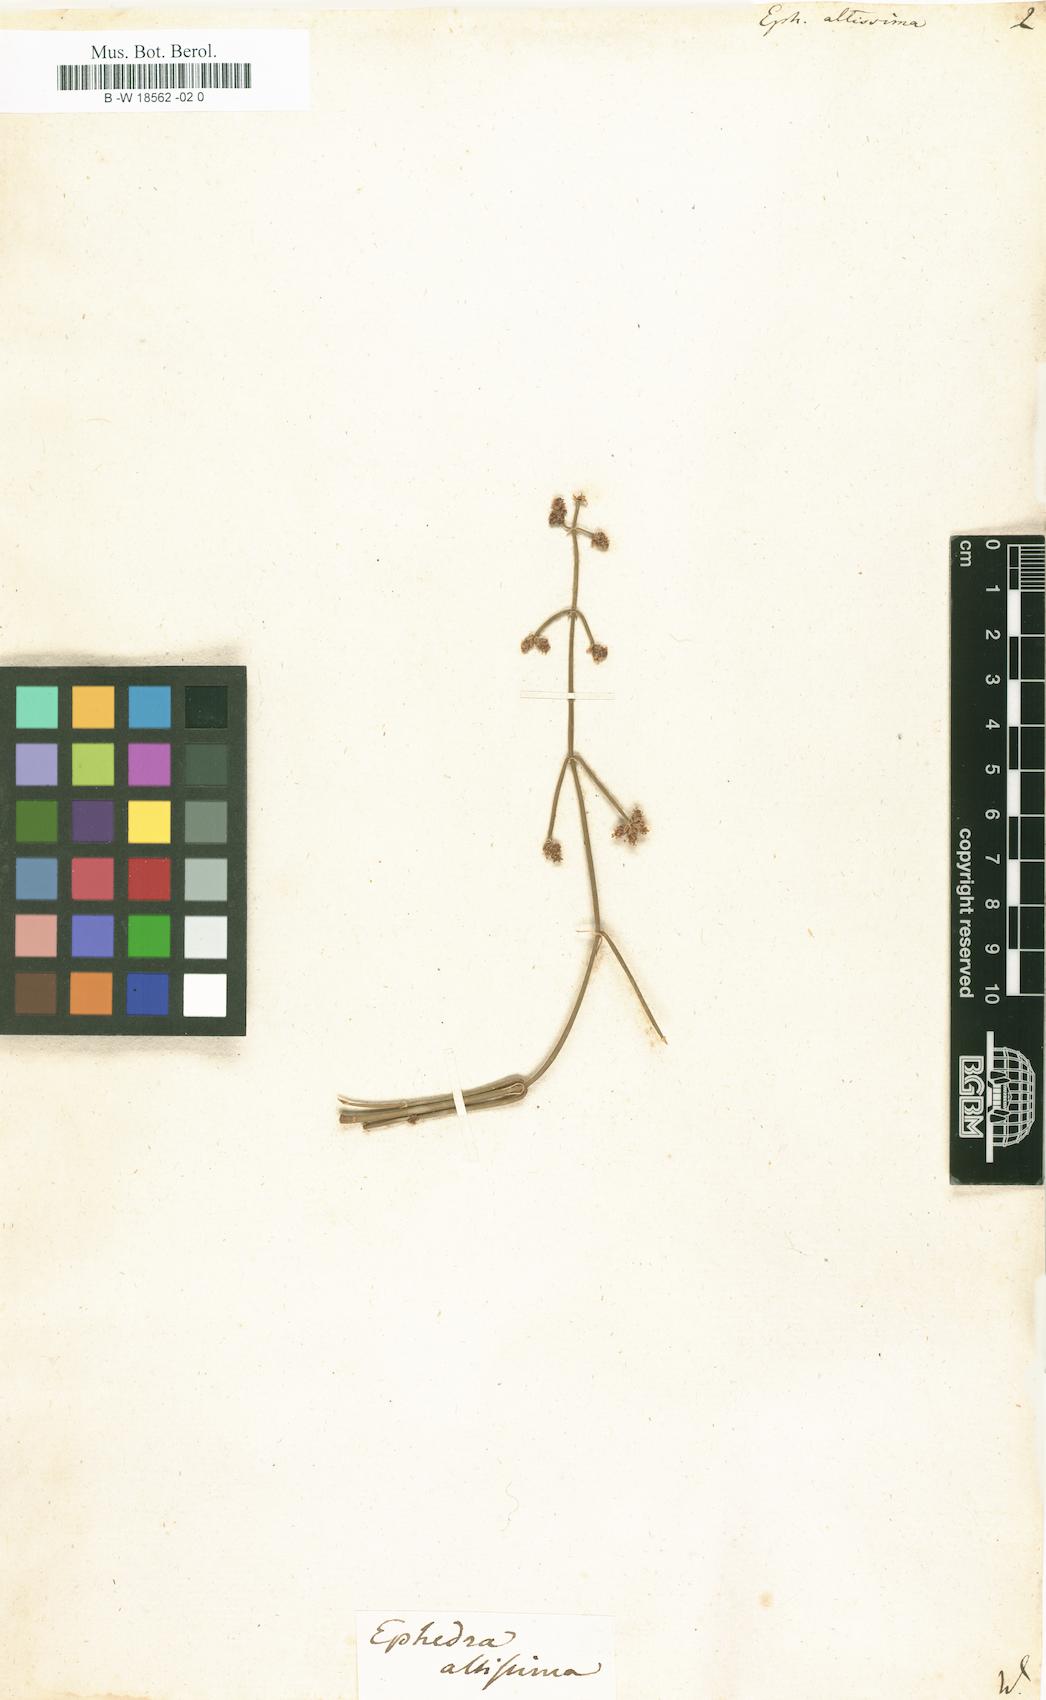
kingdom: Plantae
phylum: Tracheophyta
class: Gnetopsida
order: Ephedrales
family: Ephedraceae
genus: Ephedra
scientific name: Ephedra altissima
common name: High-climbing jointfir
